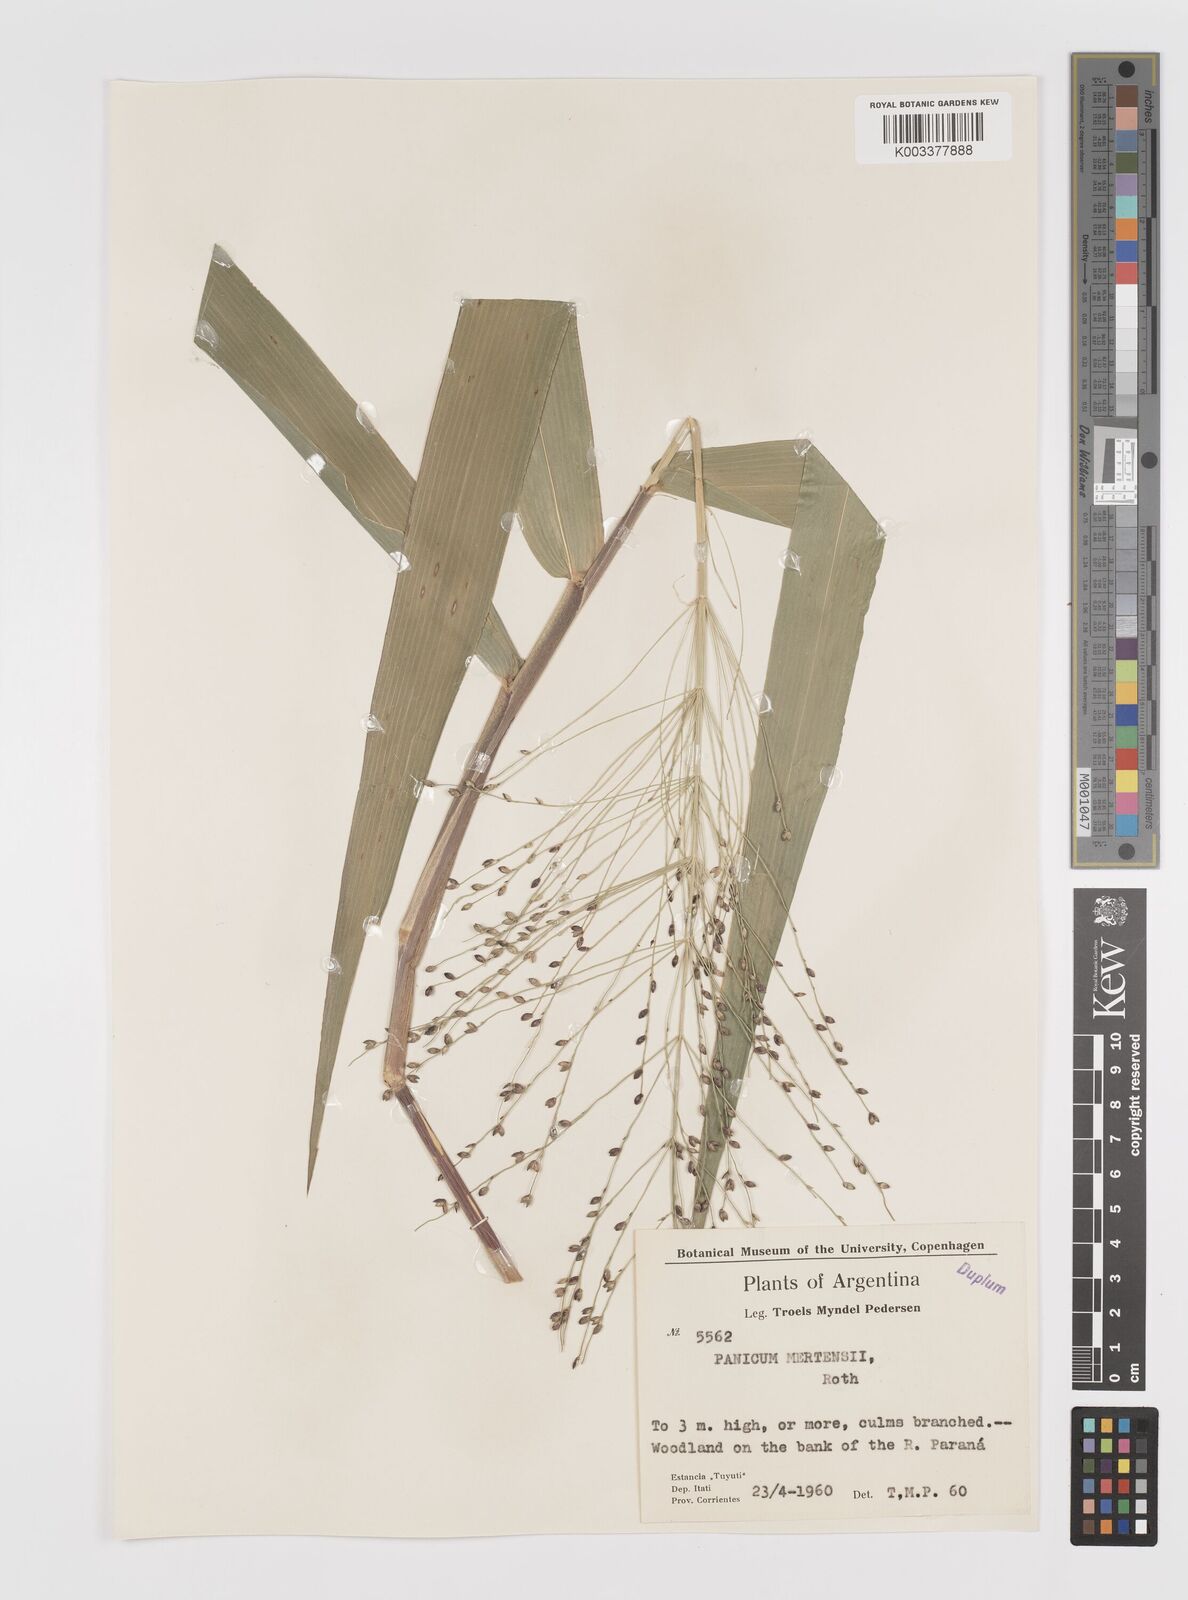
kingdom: Plantae
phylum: Tracheophyta
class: Liliopsida
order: Poales
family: Poaceae
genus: Stephostachys
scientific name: Stephostachys mertensii
